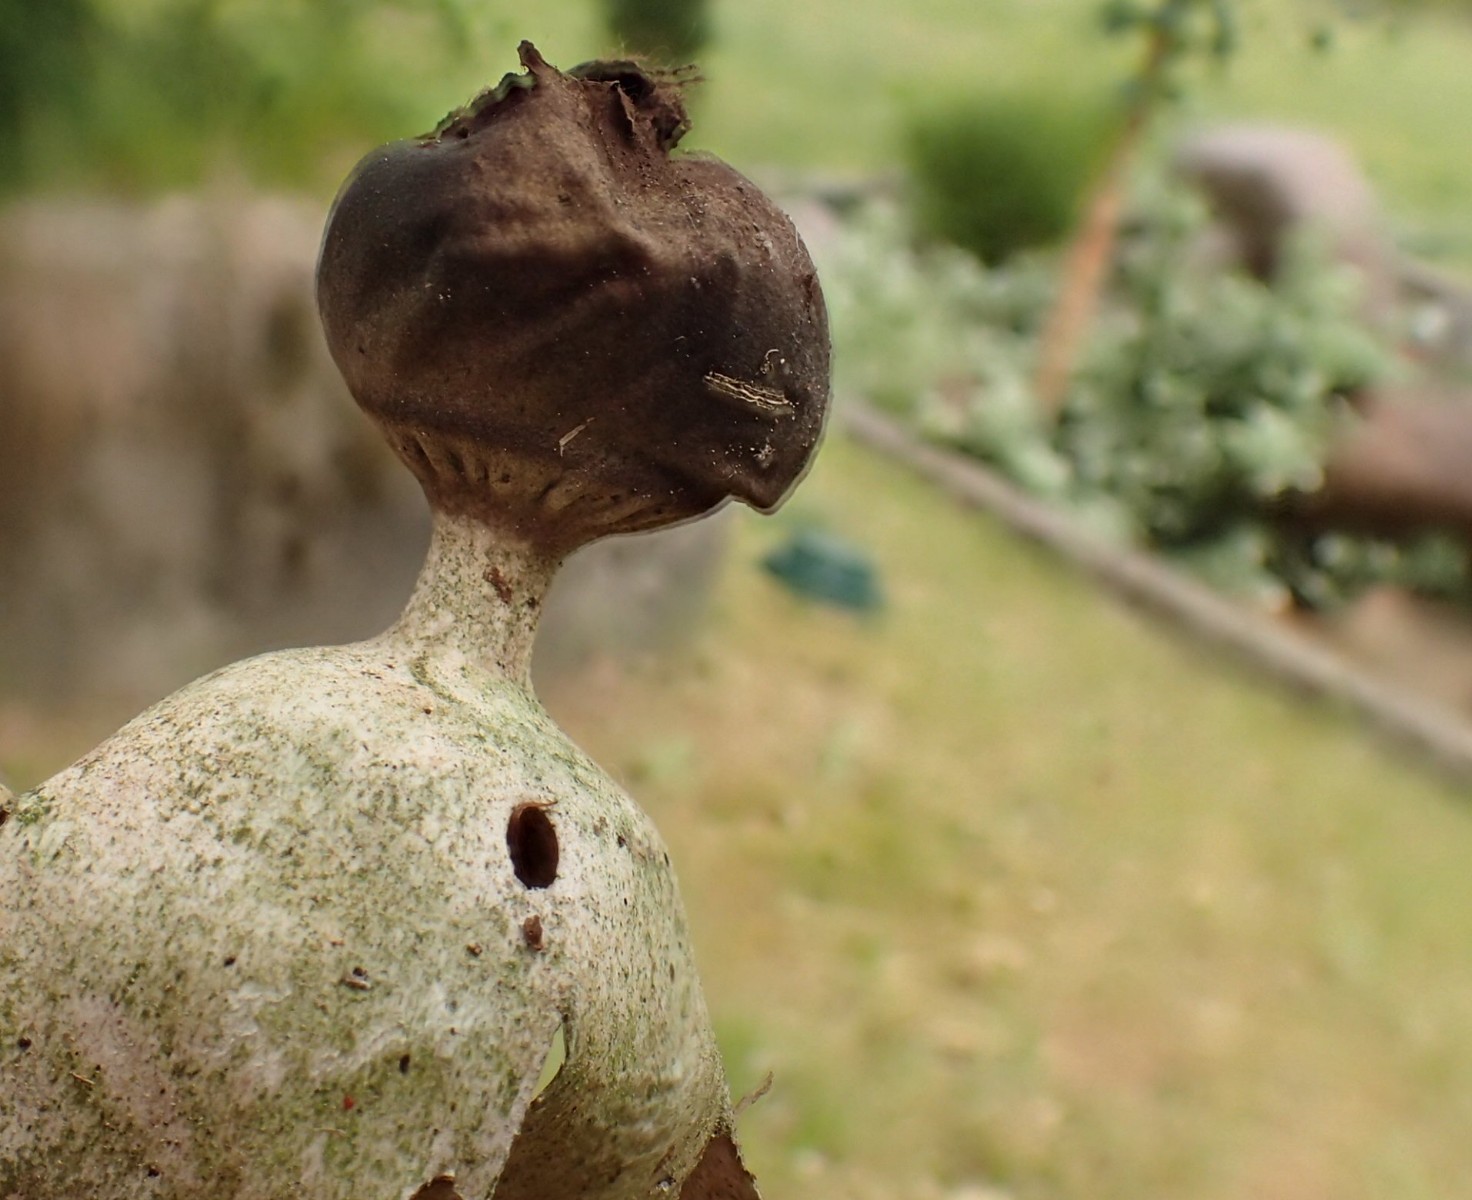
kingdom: Fungi
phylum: Basidiomycota
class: Agaricomycetes
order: Geastrales
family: Geastraceae
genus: Geastrum
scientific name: Geastrum pectinatum
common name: stilket stjernebold
